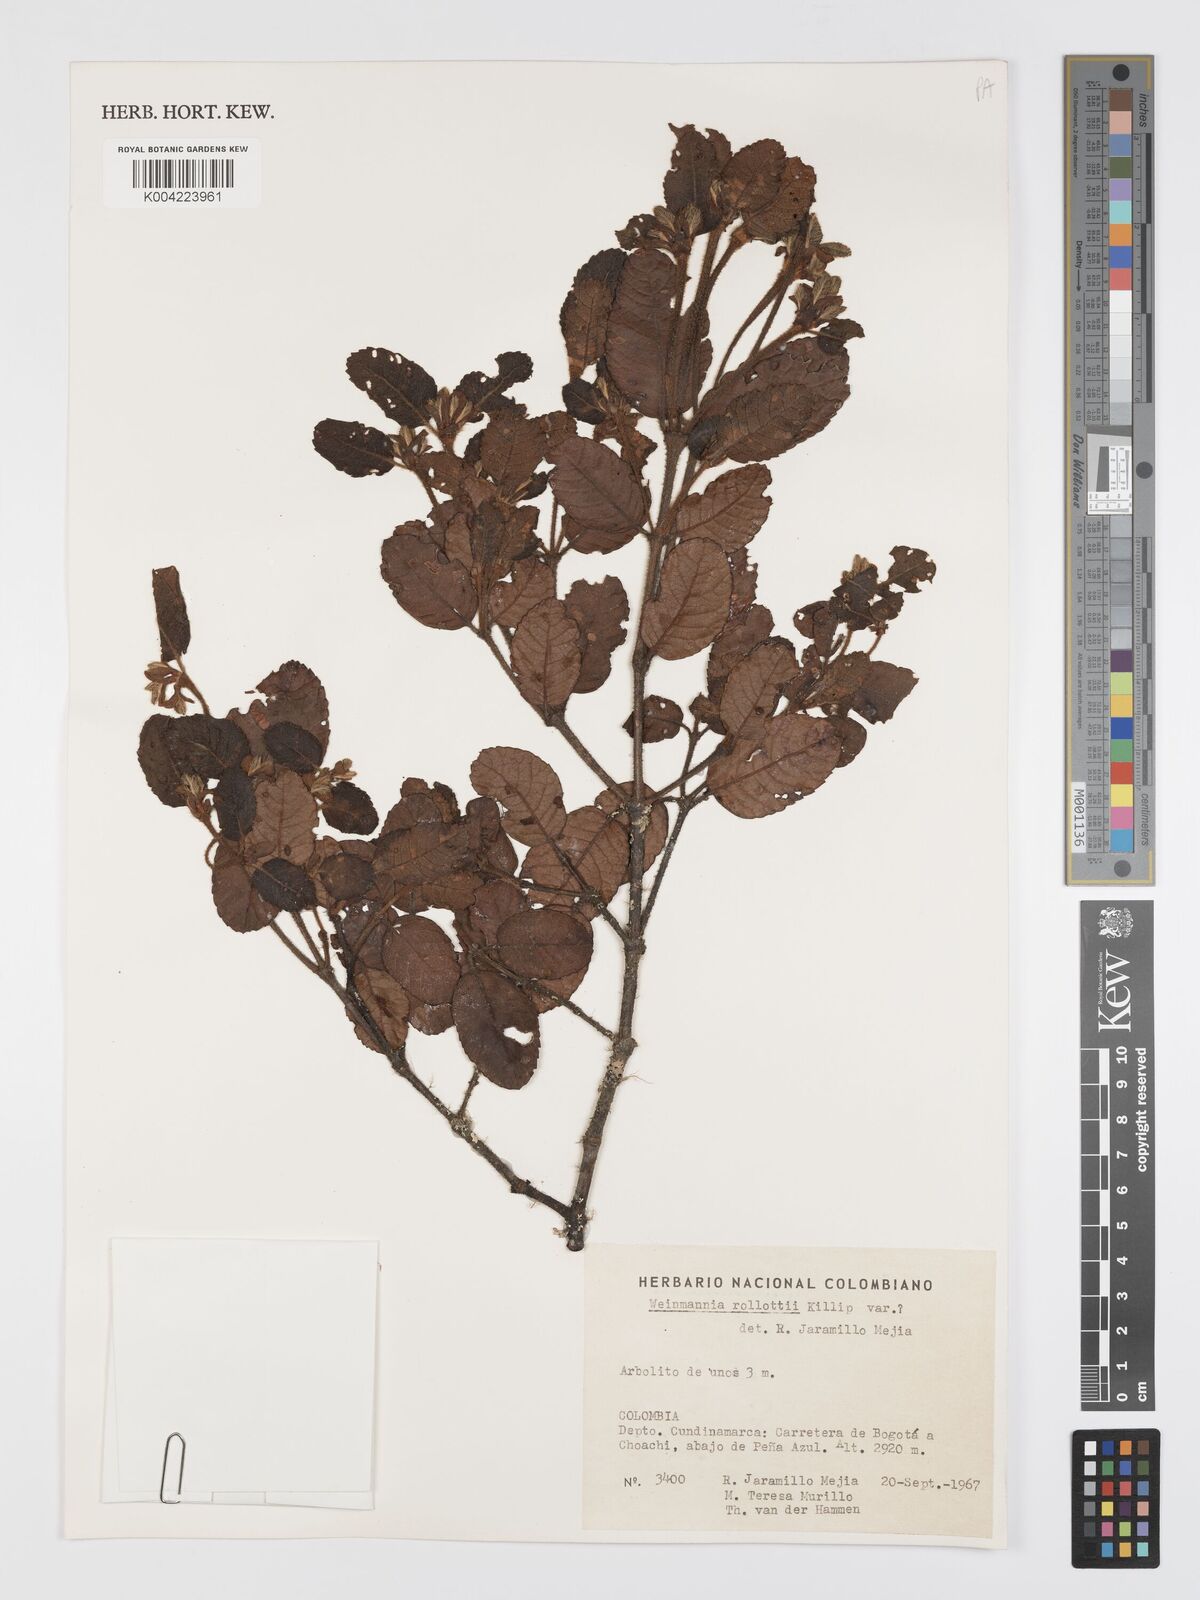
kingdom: Plantae
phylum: Tracheophyta
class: Magnoliopsida
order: Oxalidales
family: Cunoniaceae
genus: Weinmannia
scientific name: Weinmannia rollottii
